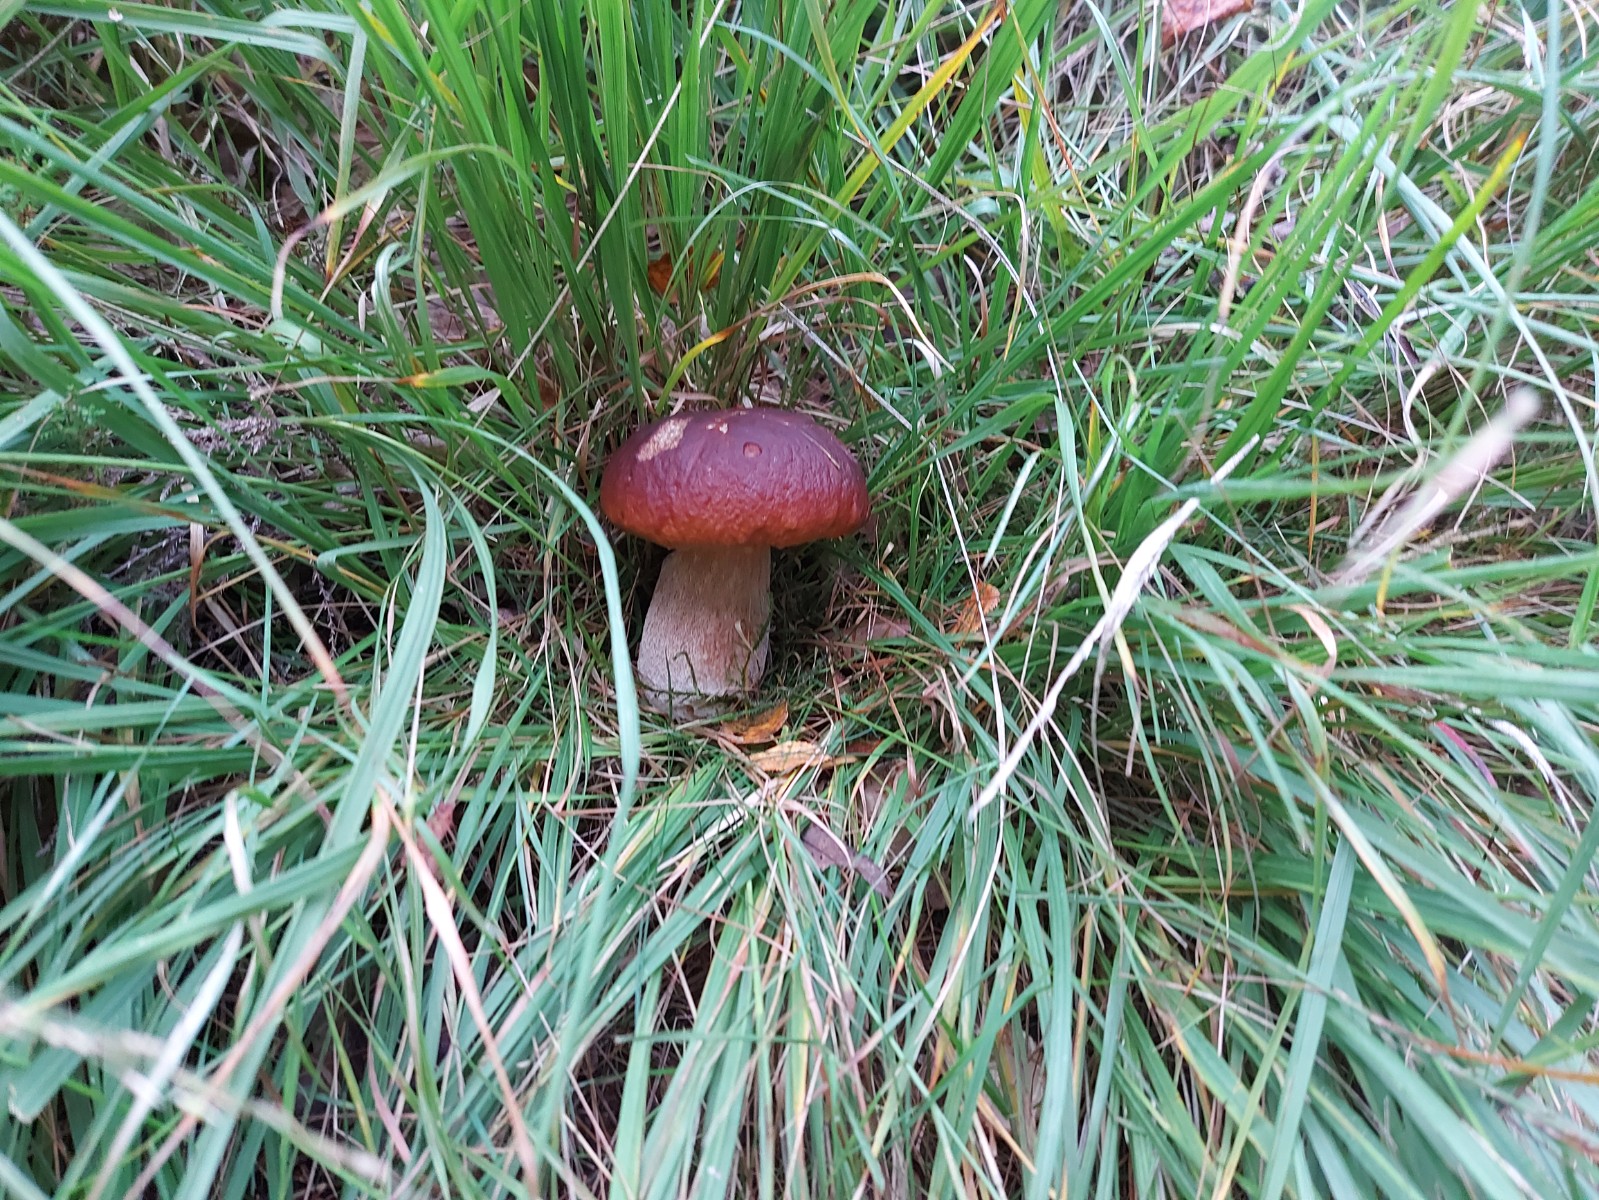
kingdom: Fungi
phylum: Basidiomycota
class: Agaricomycetes
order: Boletales
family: Boletaceae
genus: Boletus
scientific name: Boletus edulis
